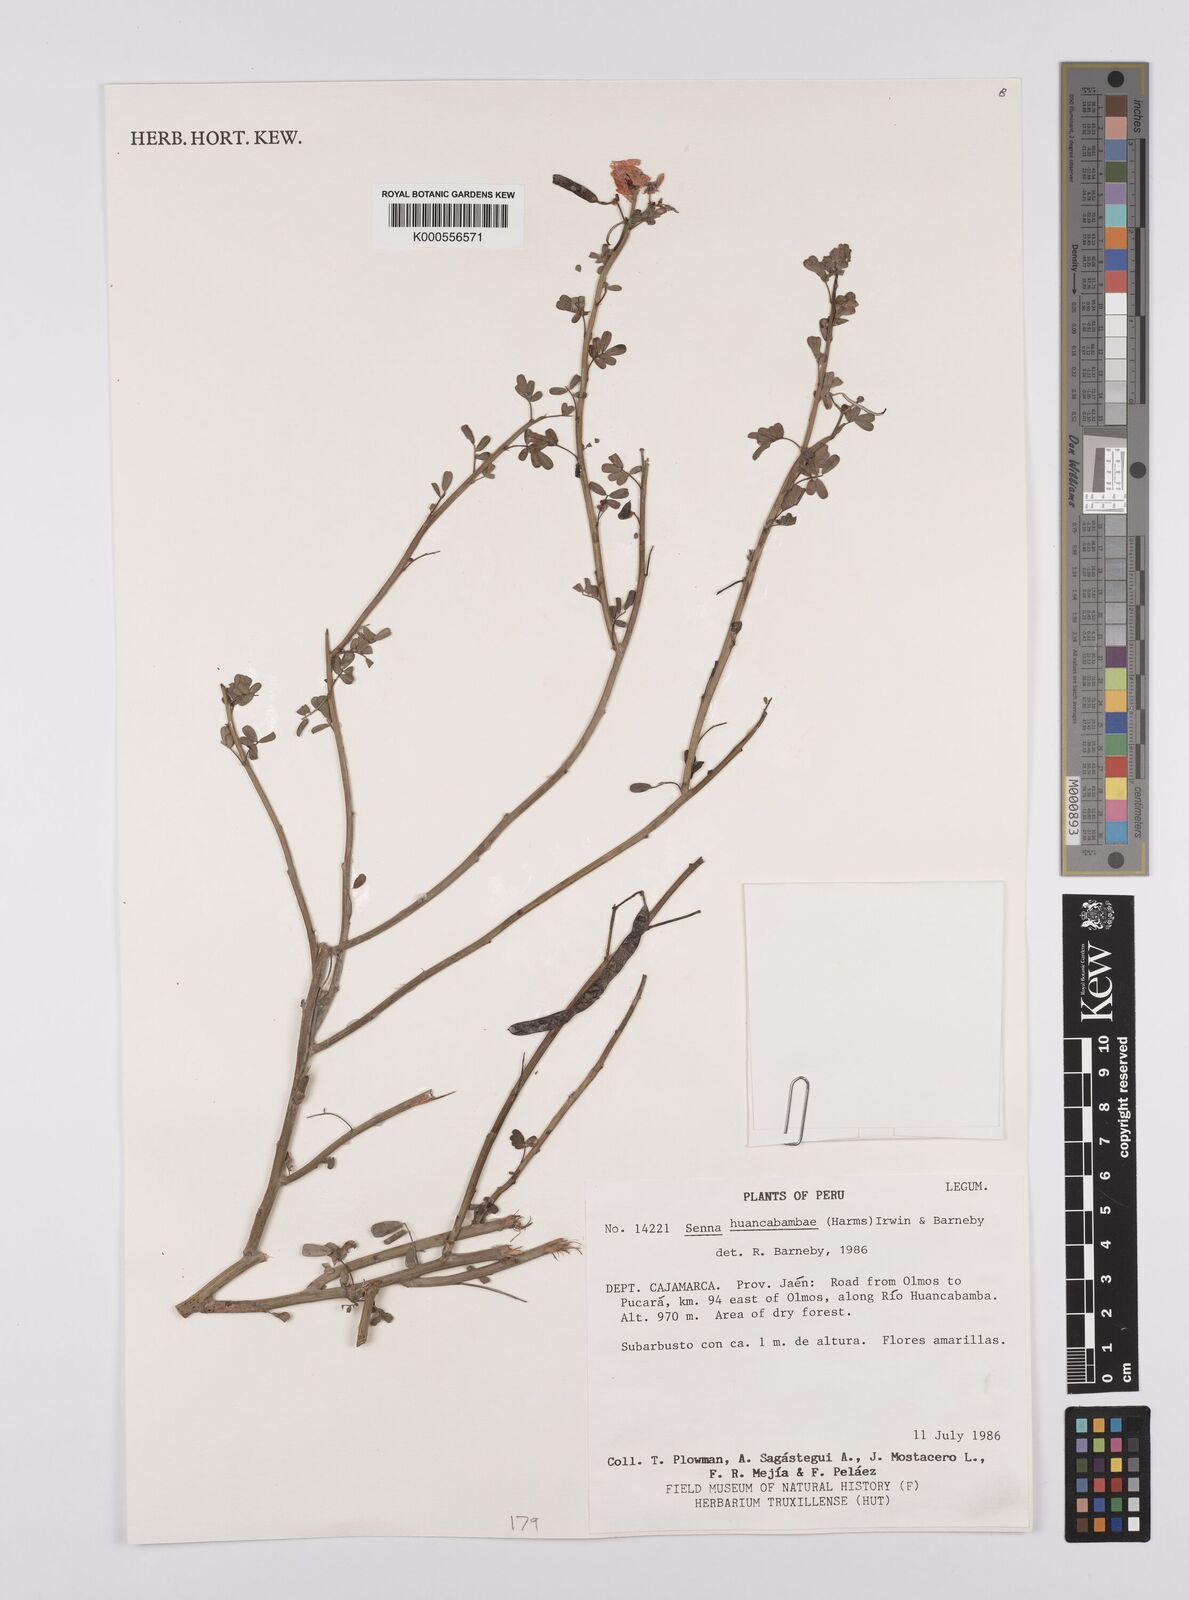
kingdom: Plantae
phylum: Tracheophyta
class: Magnoliopsida
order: Fabales
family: Fabaceae
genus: Senna
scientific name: Senna huancabambae
